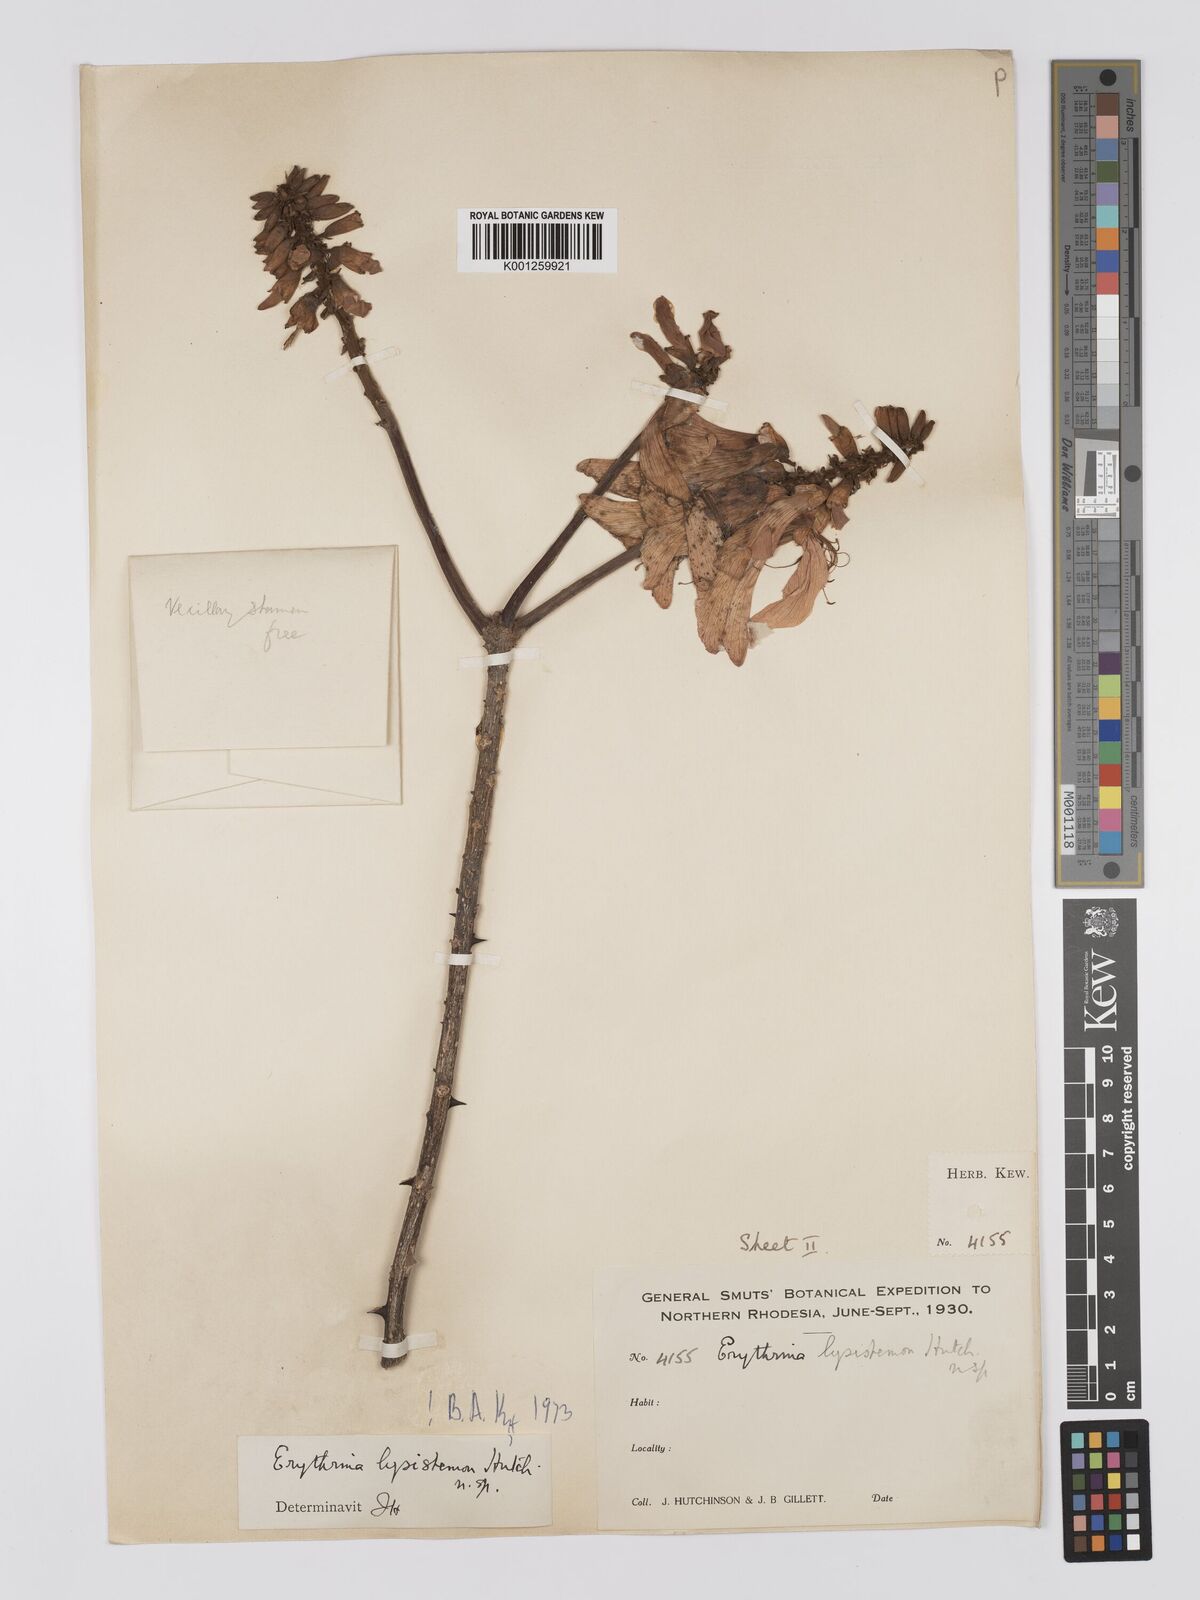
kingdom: Plantae
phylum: Tracheophyta
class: Magnoliopsida
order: Fabales
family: Fabaceae
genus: Erythrina
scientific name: Erythrina lysistemon
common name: Common coral tree
